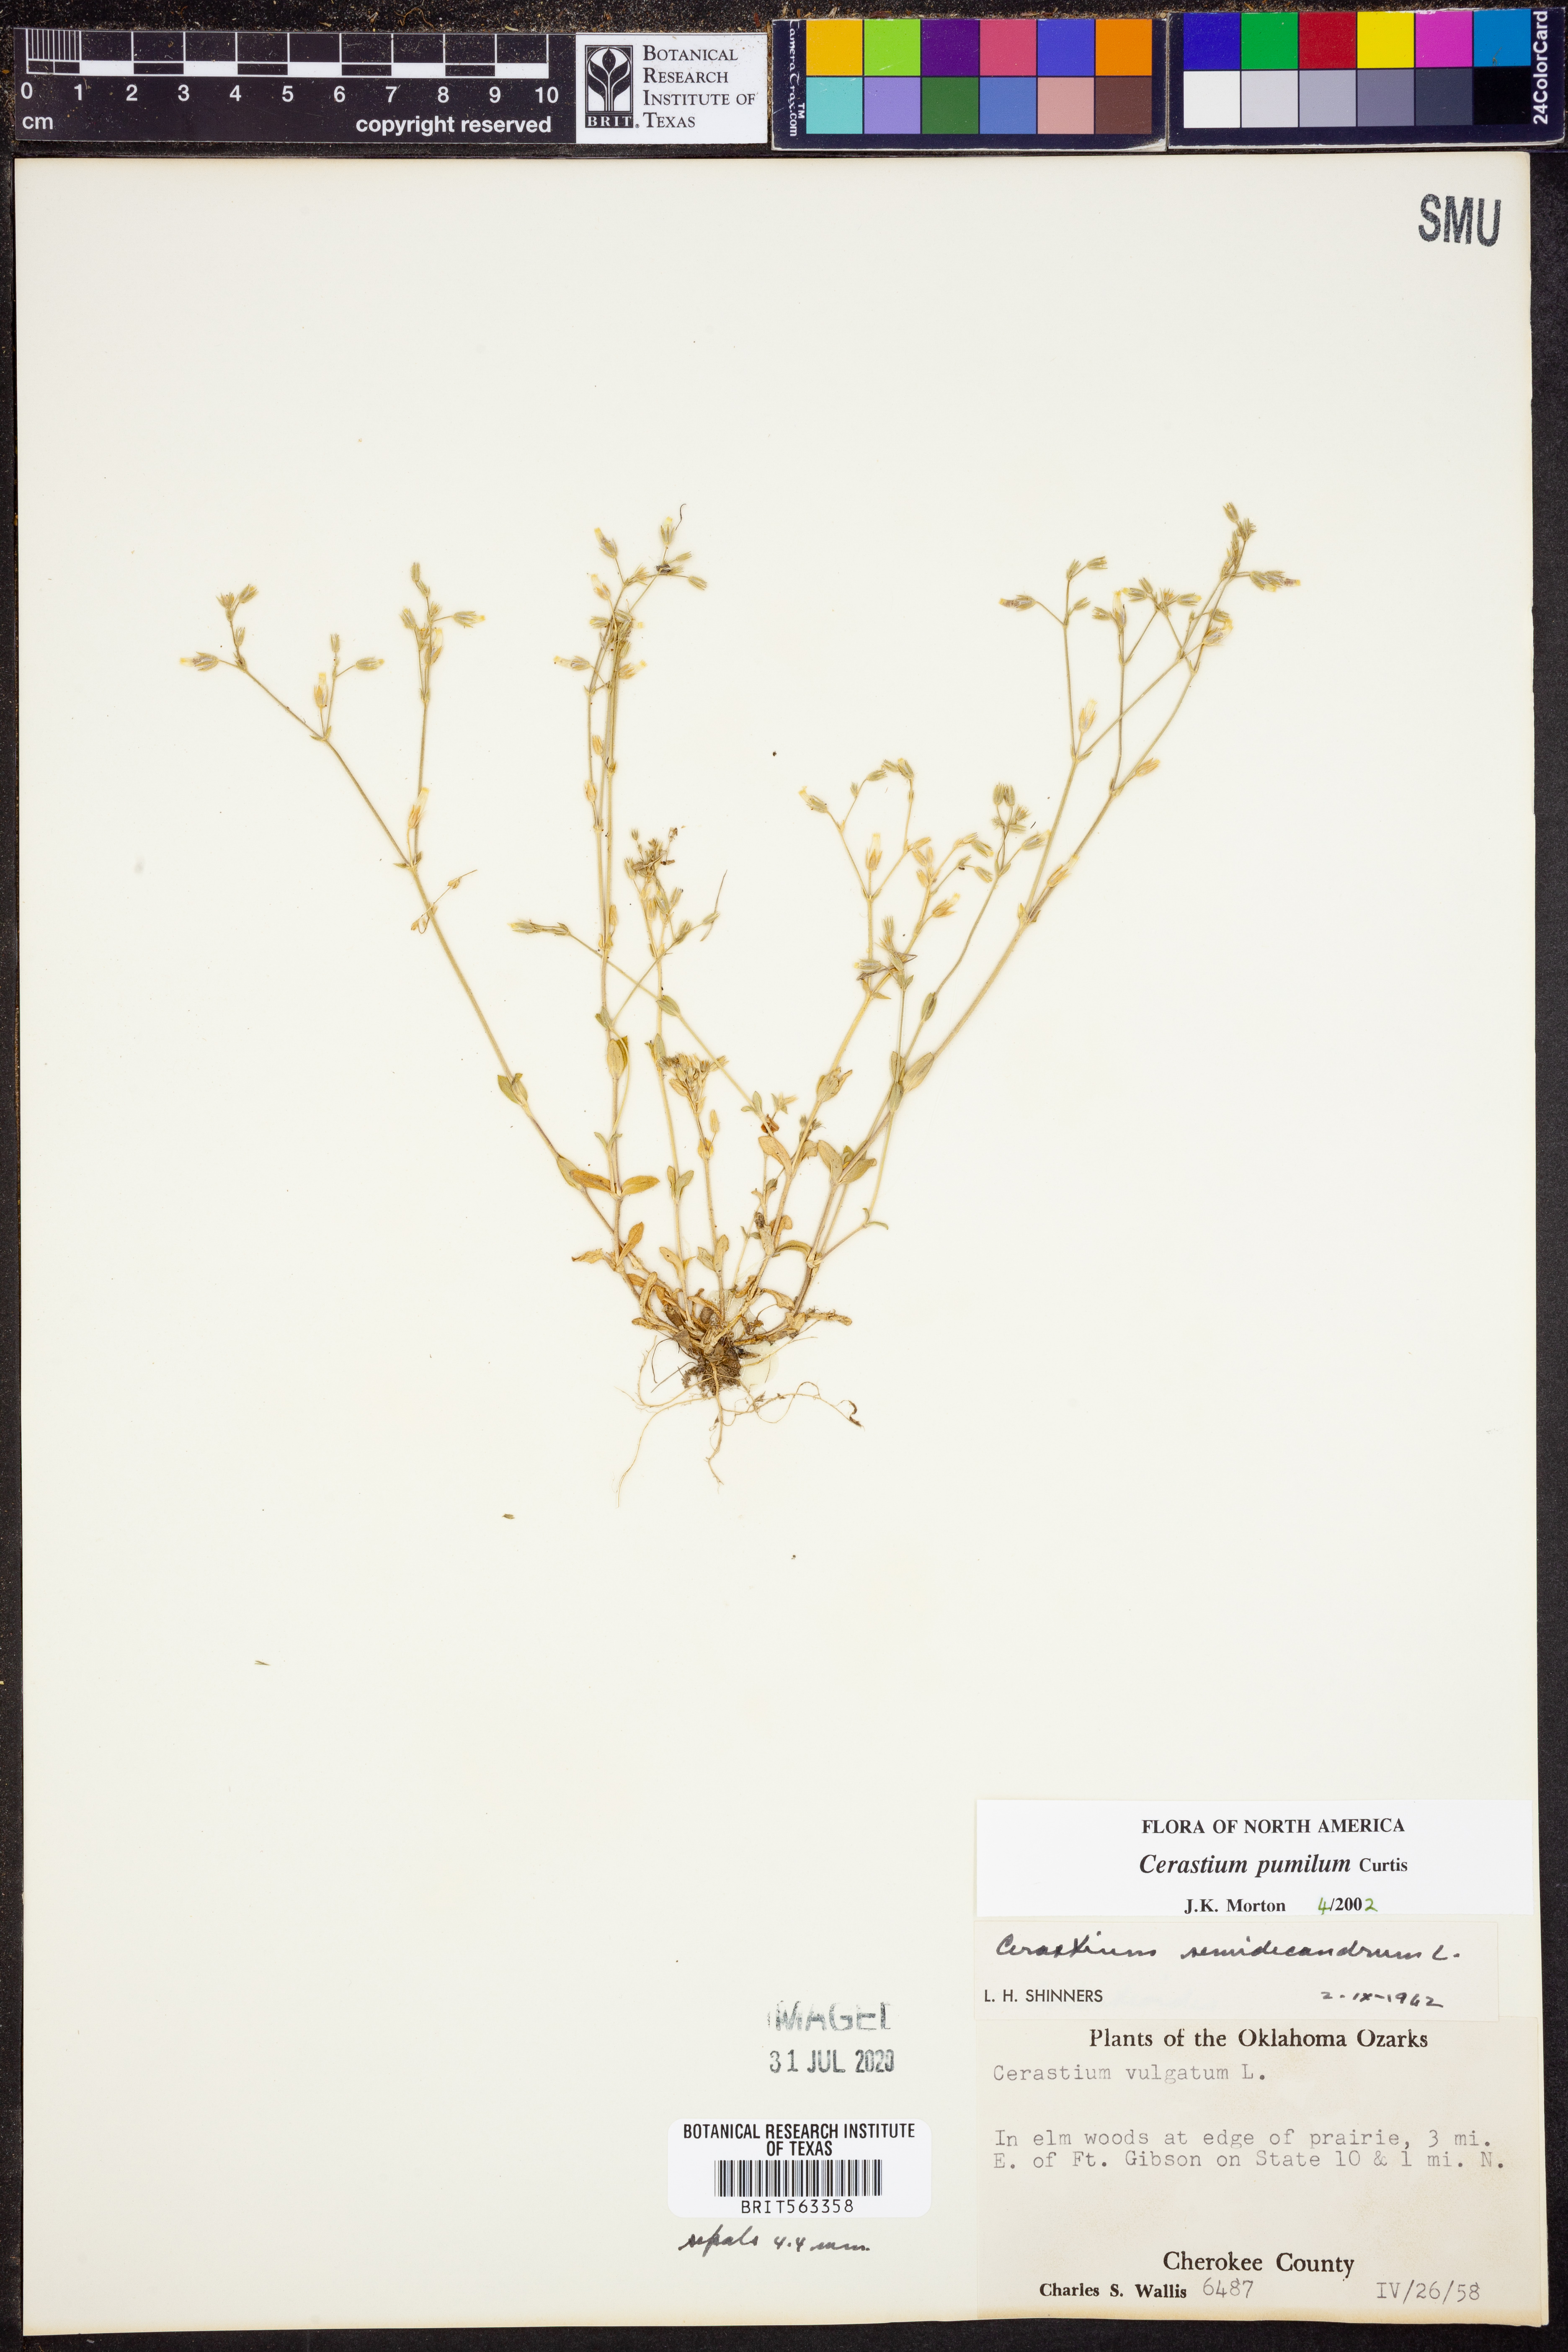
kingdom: Plantae
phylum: Tracheophyta
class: Magnoliopsida
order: Caryophyllales
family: Caryophyllaceae
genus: Cerastium
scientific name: Cerastium pumilum
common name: Dwarf mouse-ear
